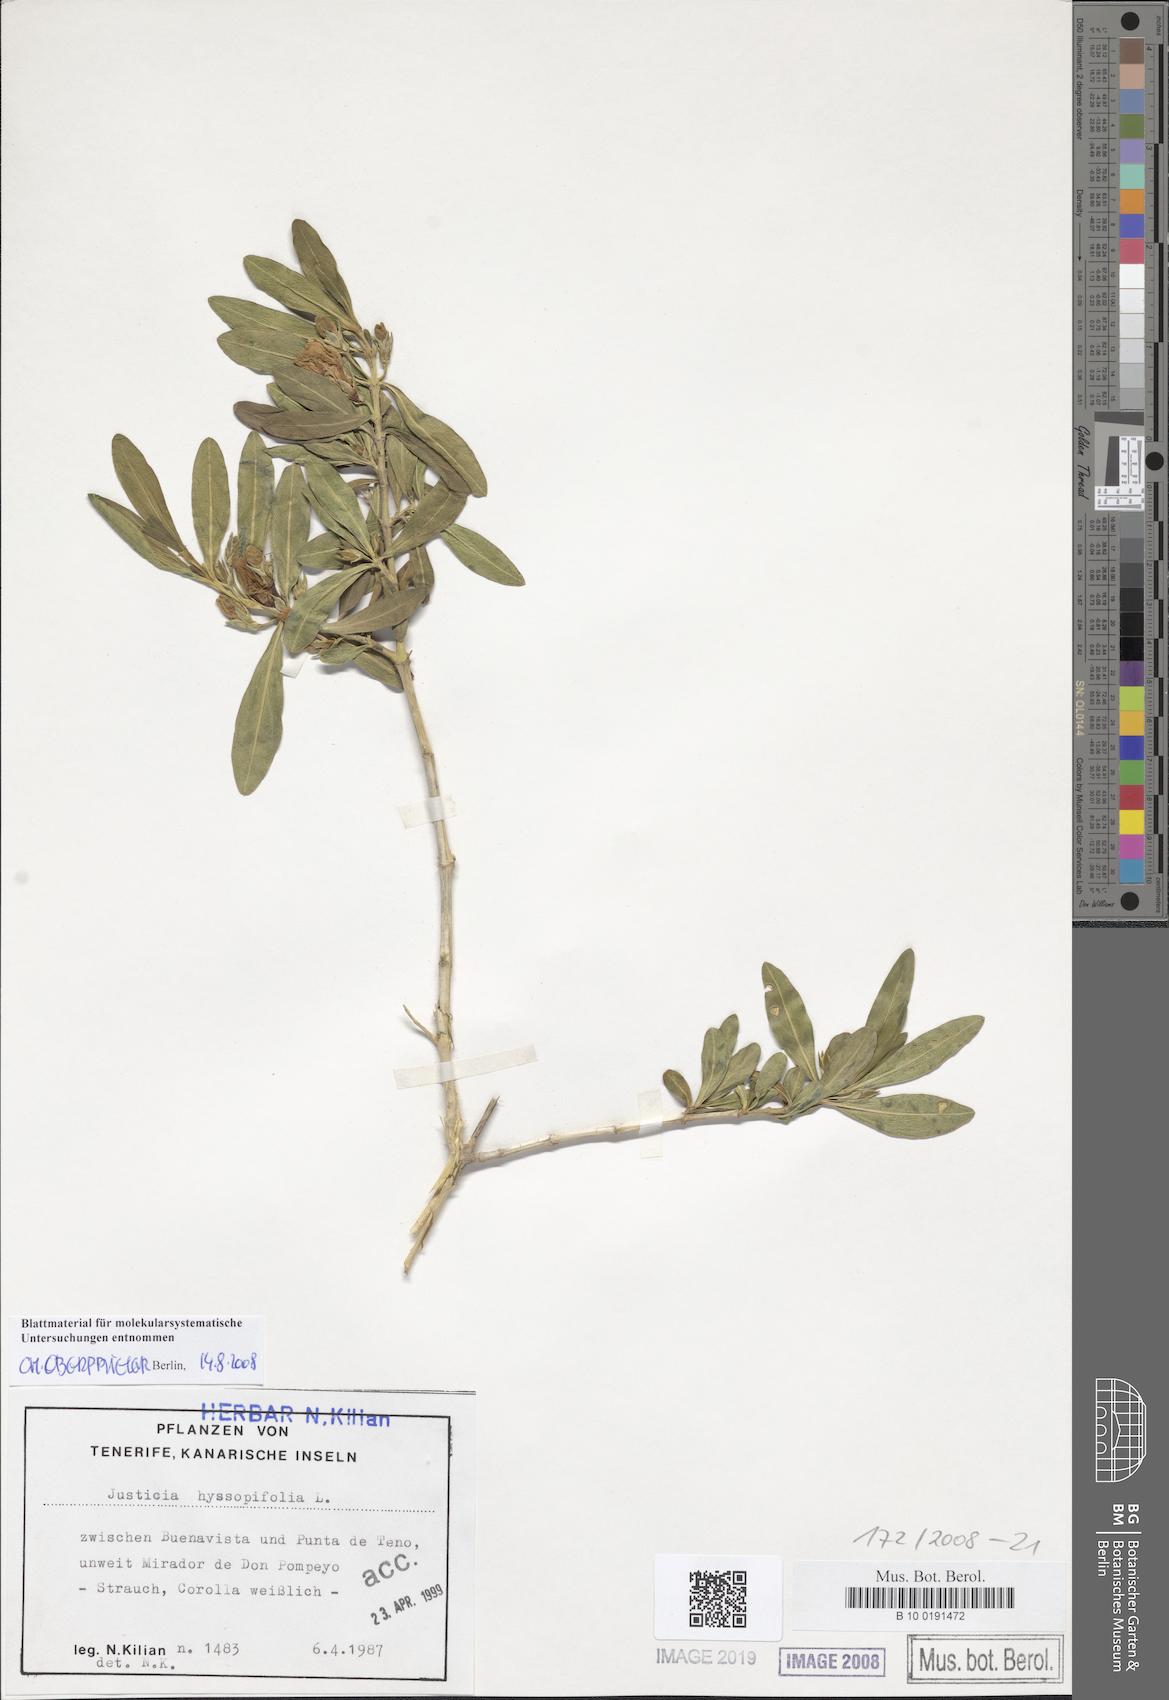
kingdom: Plantae
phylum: Tracheophyta
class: Magnoliopsida
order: Lamiales
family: Acanthaceae
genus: Anisacanthus
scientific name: Anisacanthus quadrifidus
